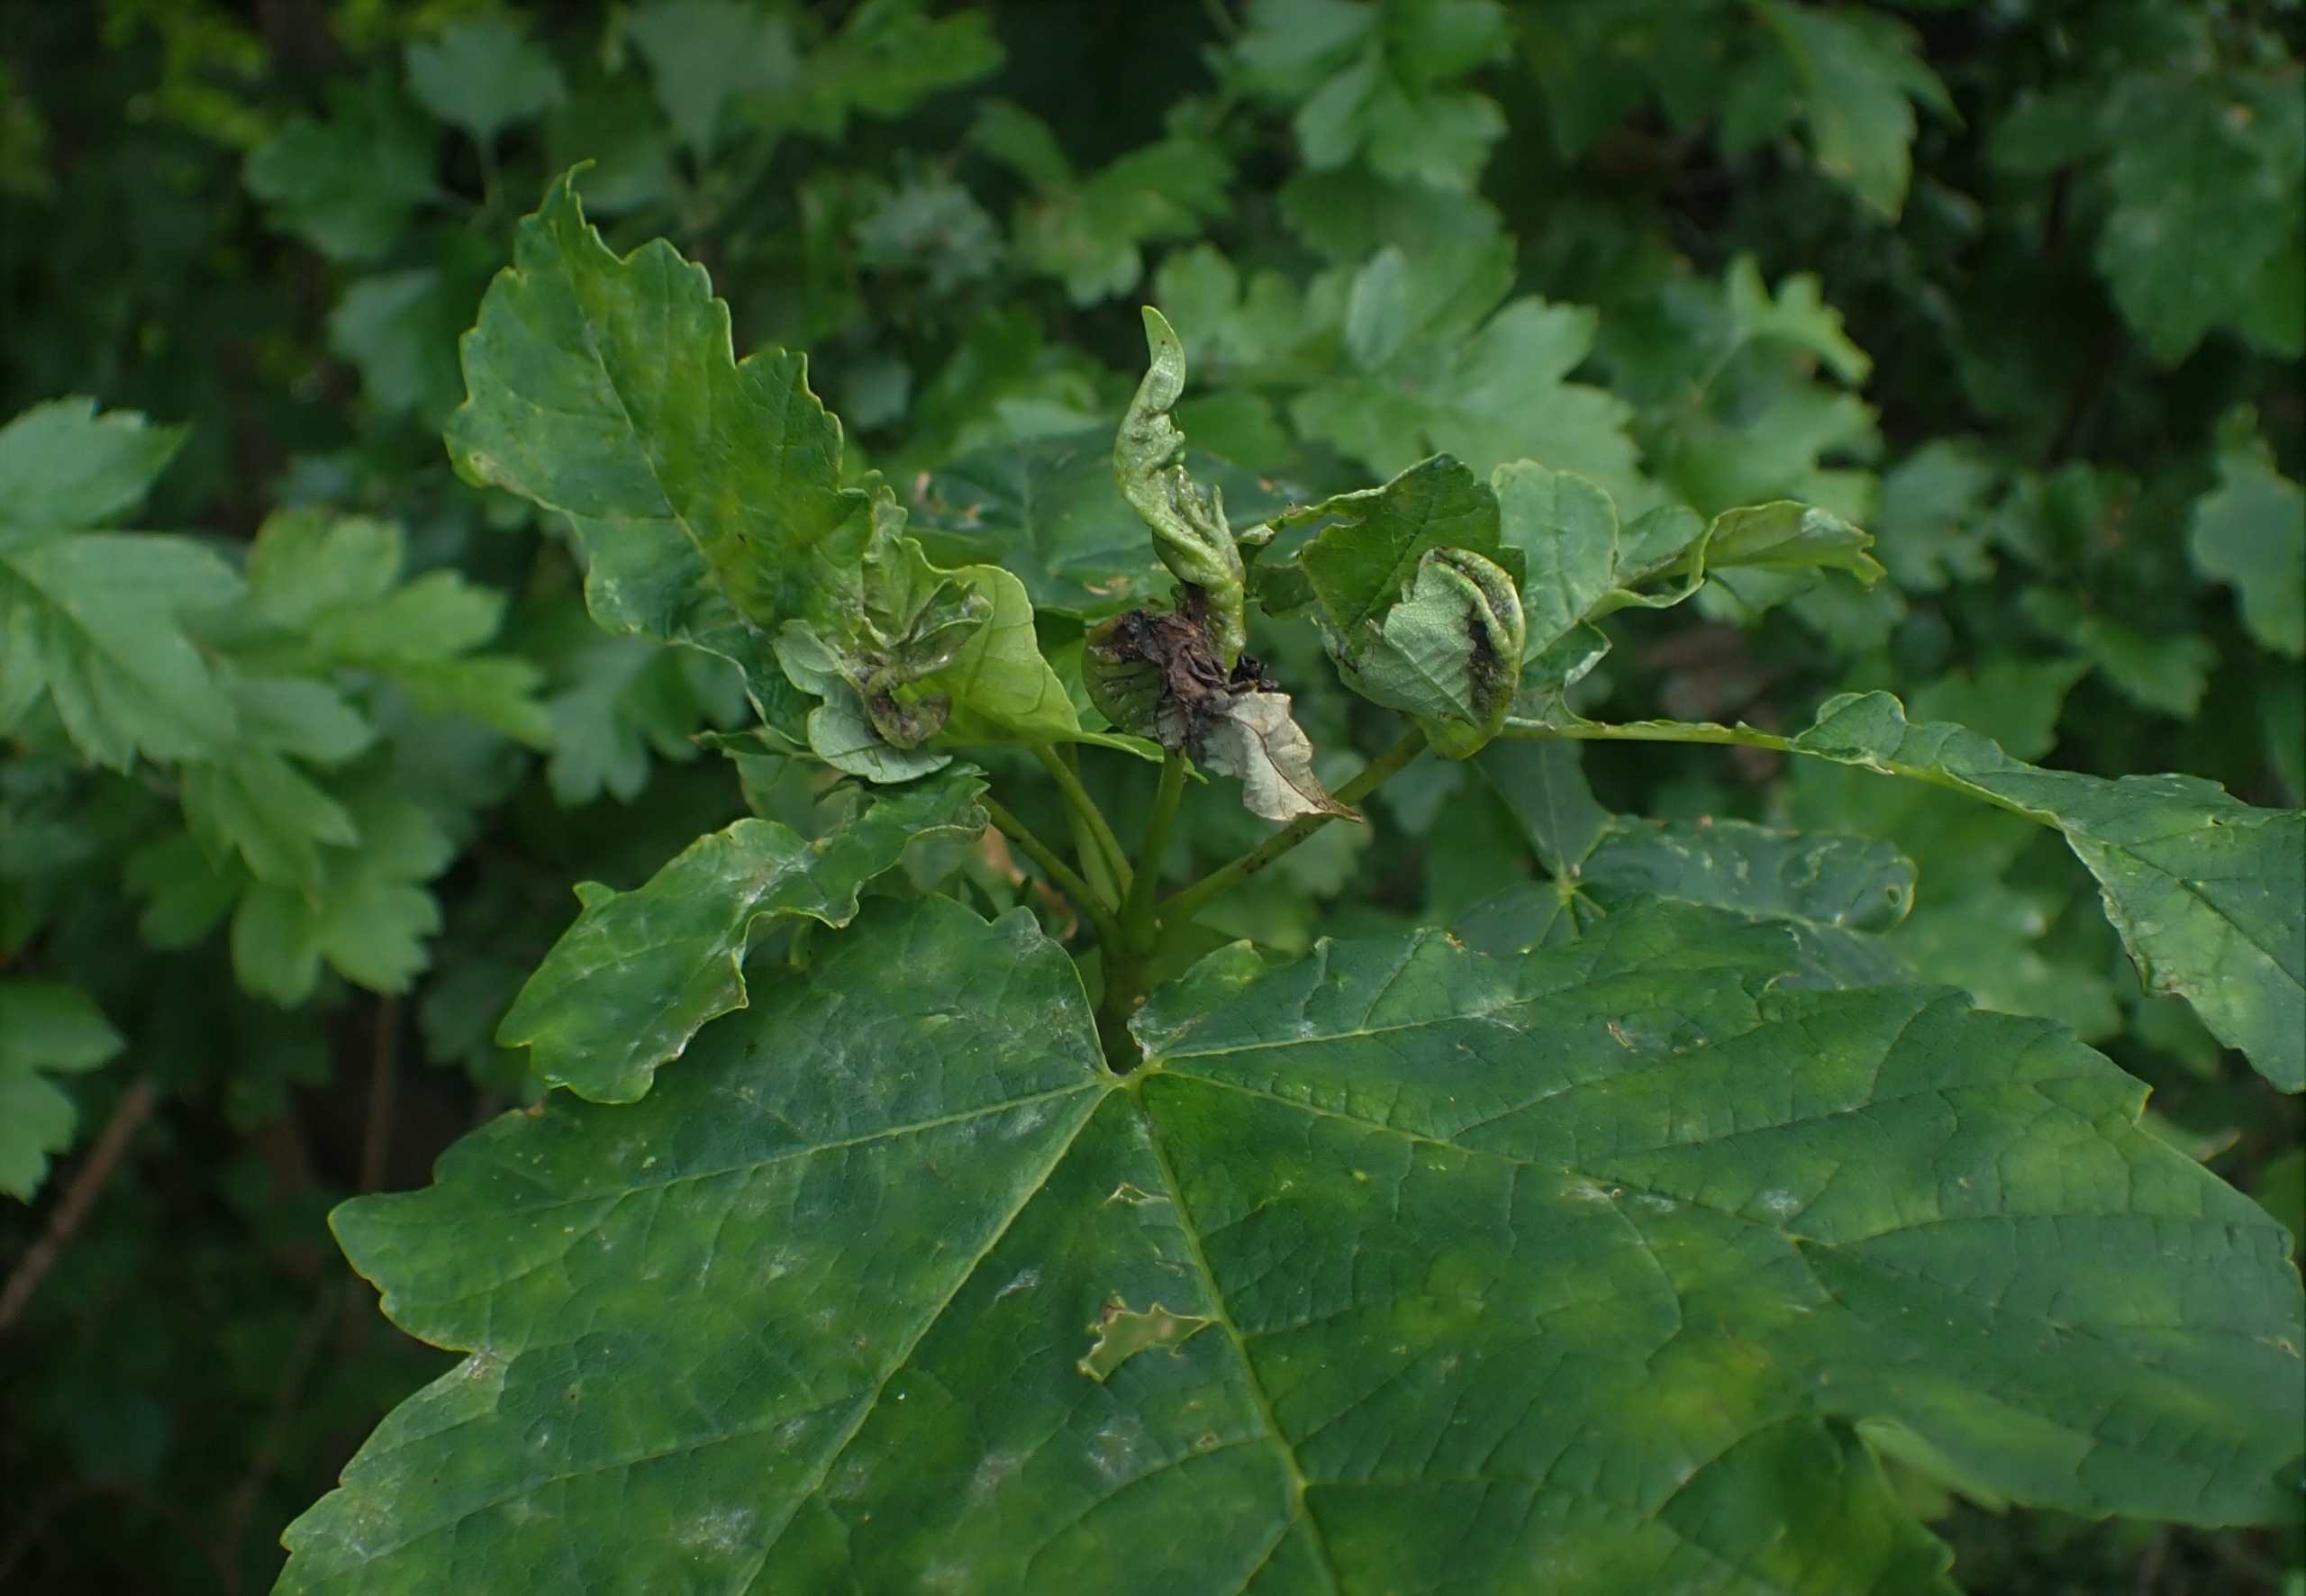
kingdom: Animalia
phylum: Arthropoda
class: Insecta
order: Diptera
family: Cecidomyiidae
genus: Dasineura
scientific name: Dasineura irregularis
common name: Ahornkrusegalmyg
